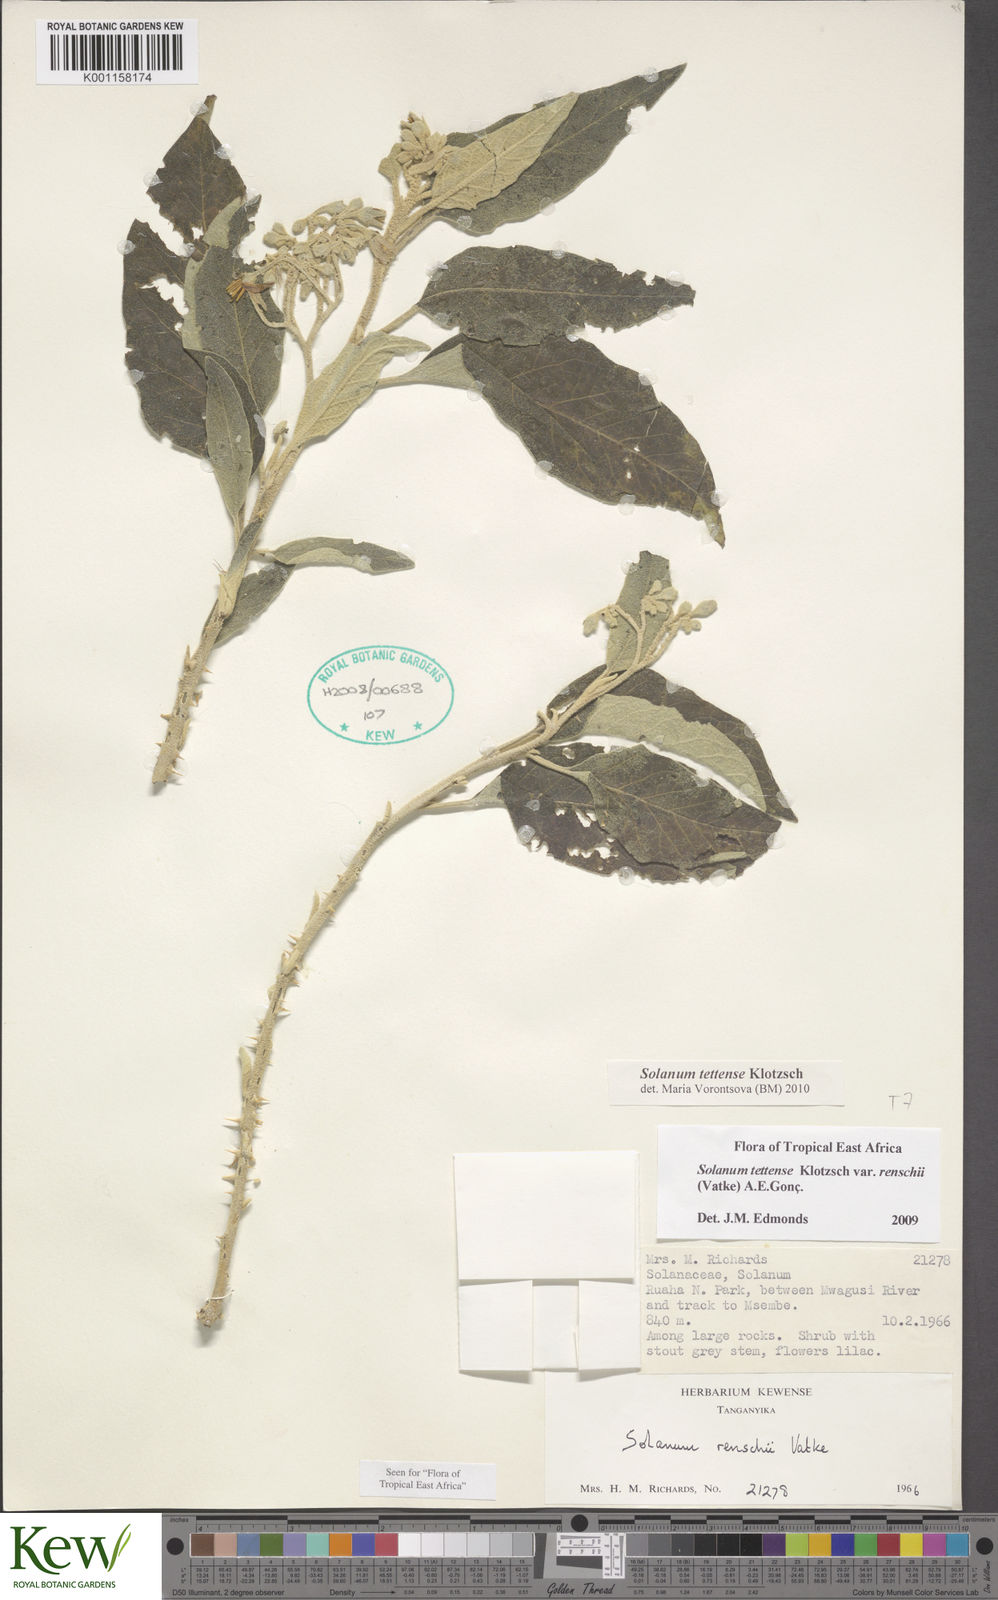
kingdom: Plantae
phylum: Tracheophyta
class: Magnoliopsida
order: Solanales
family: Solanaceae
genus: Solanum
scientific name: Solanum tettense
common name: Mozambique bitter apple
